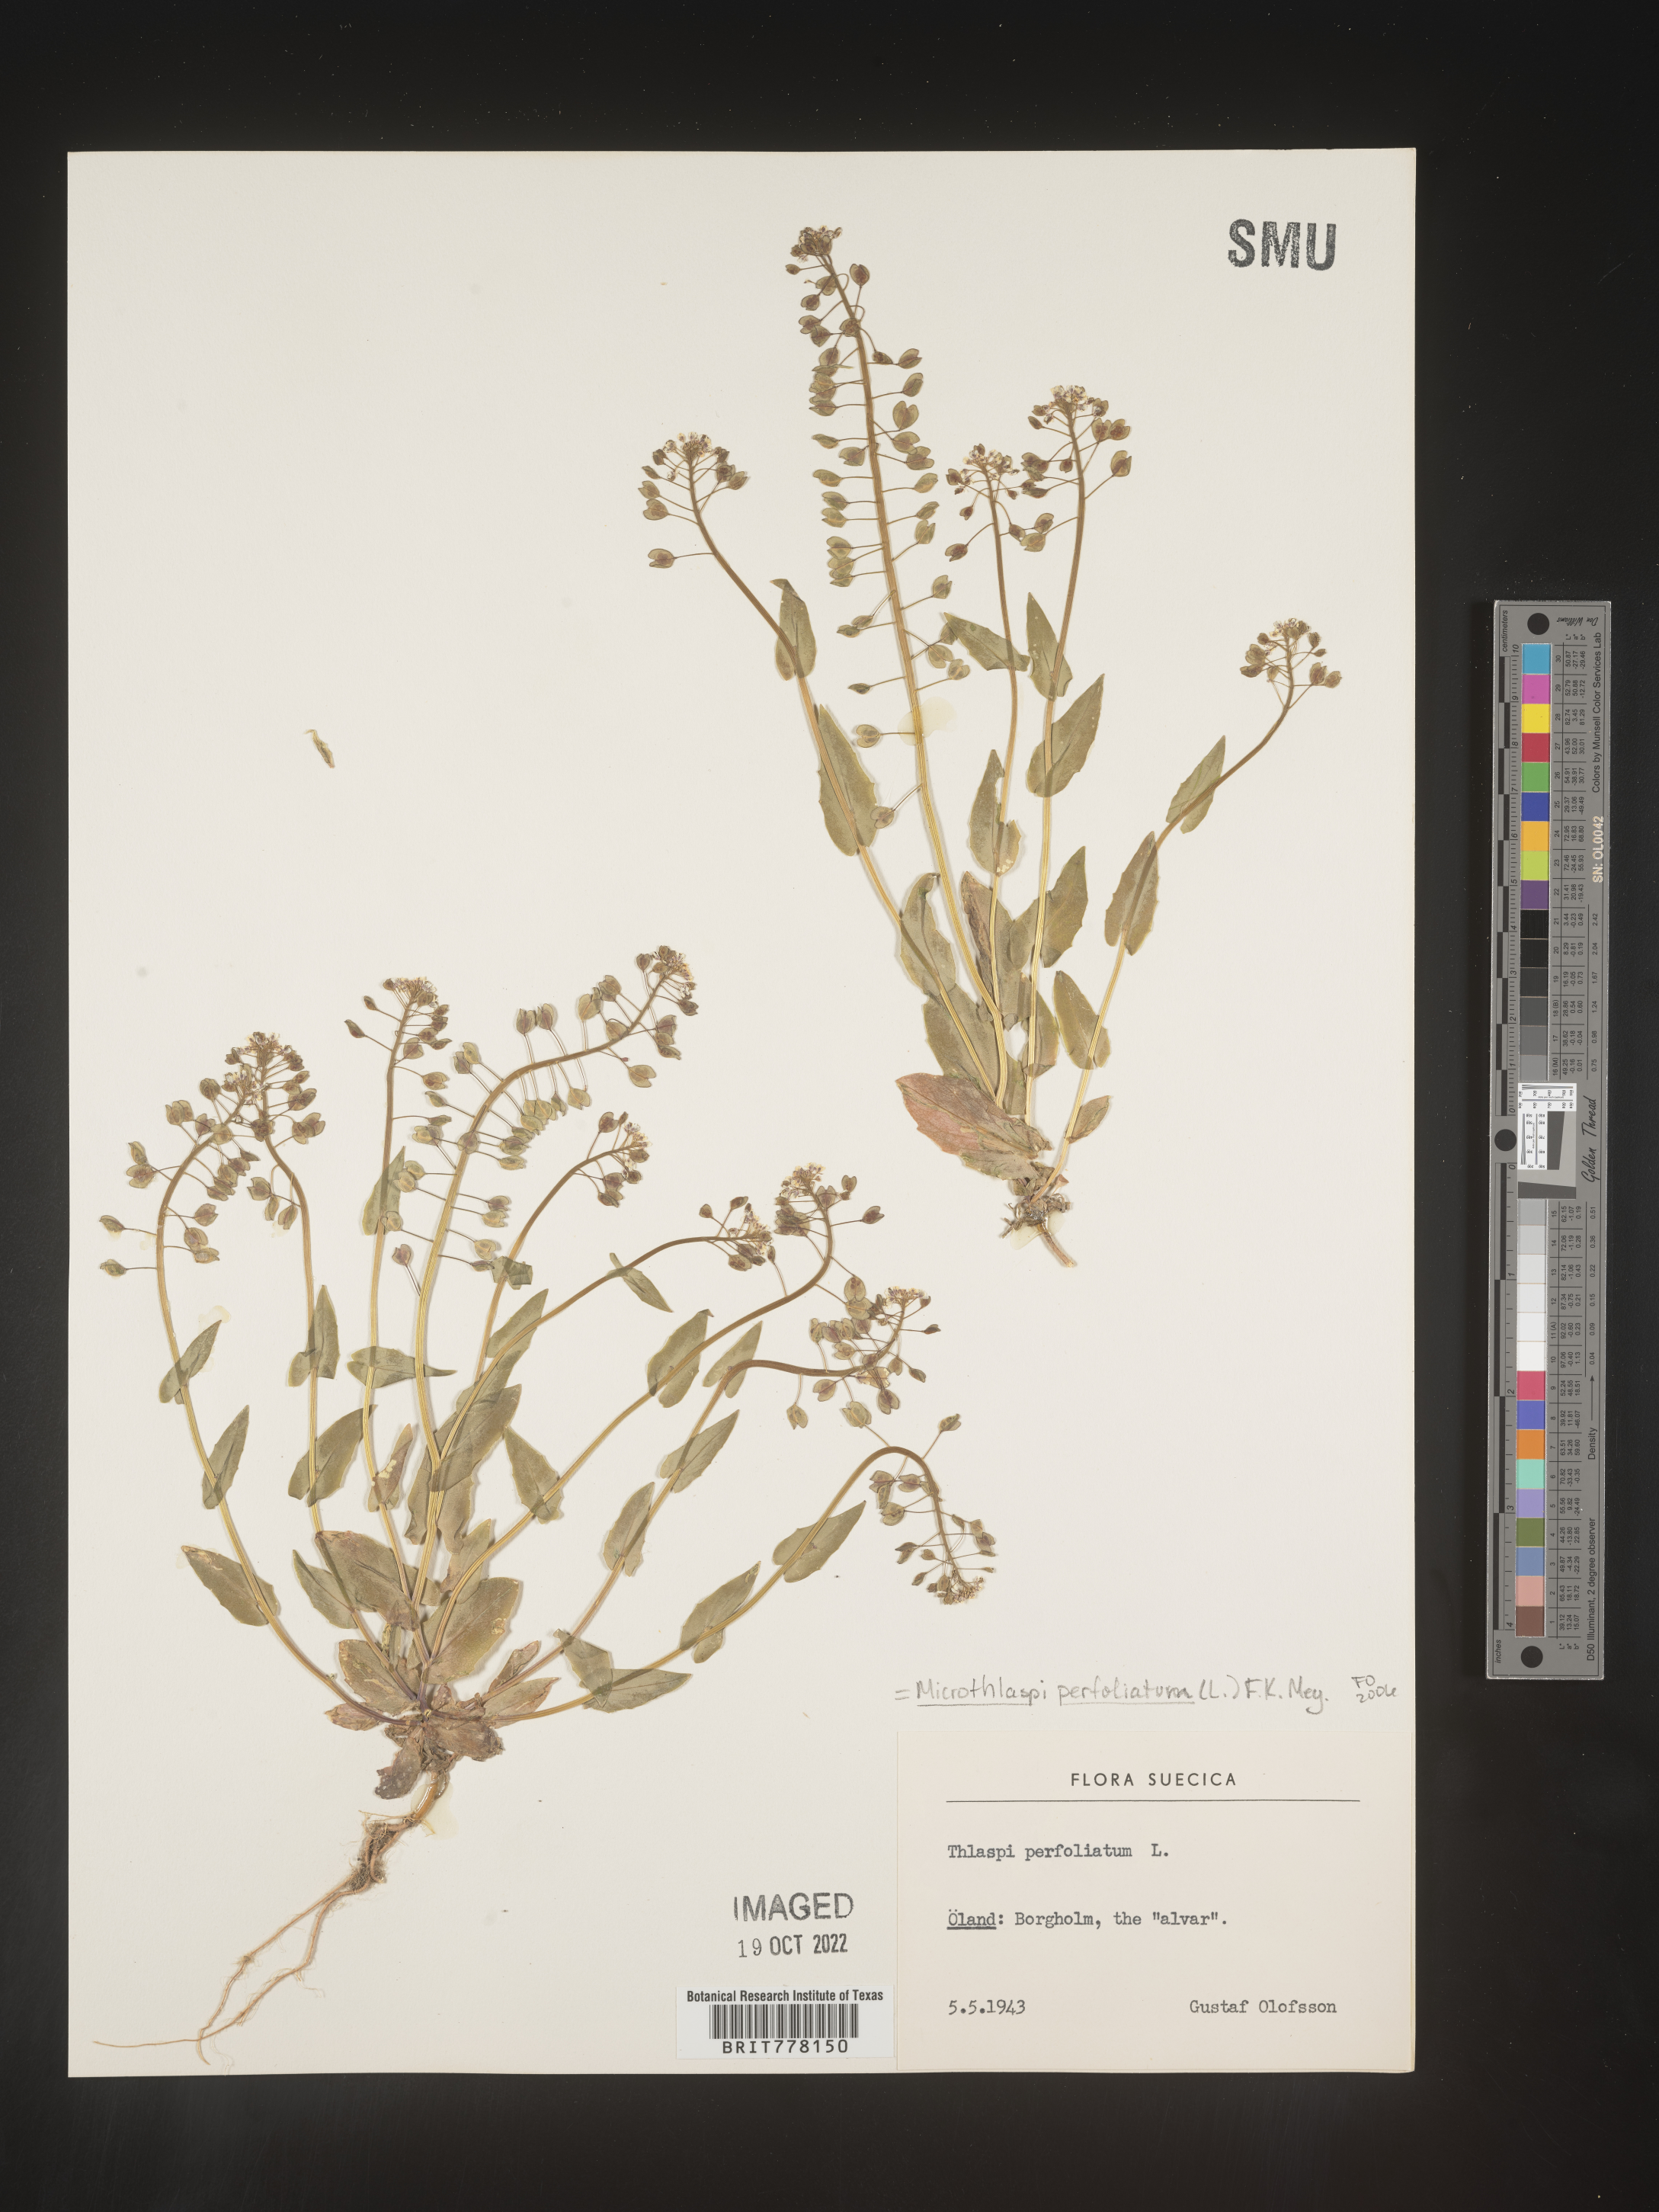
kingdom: Plantae
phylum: Tracheophyta
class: Magnoliopsida
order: Brassicales
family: Brassicaceae
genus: Noccaea
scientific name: Noccaea
